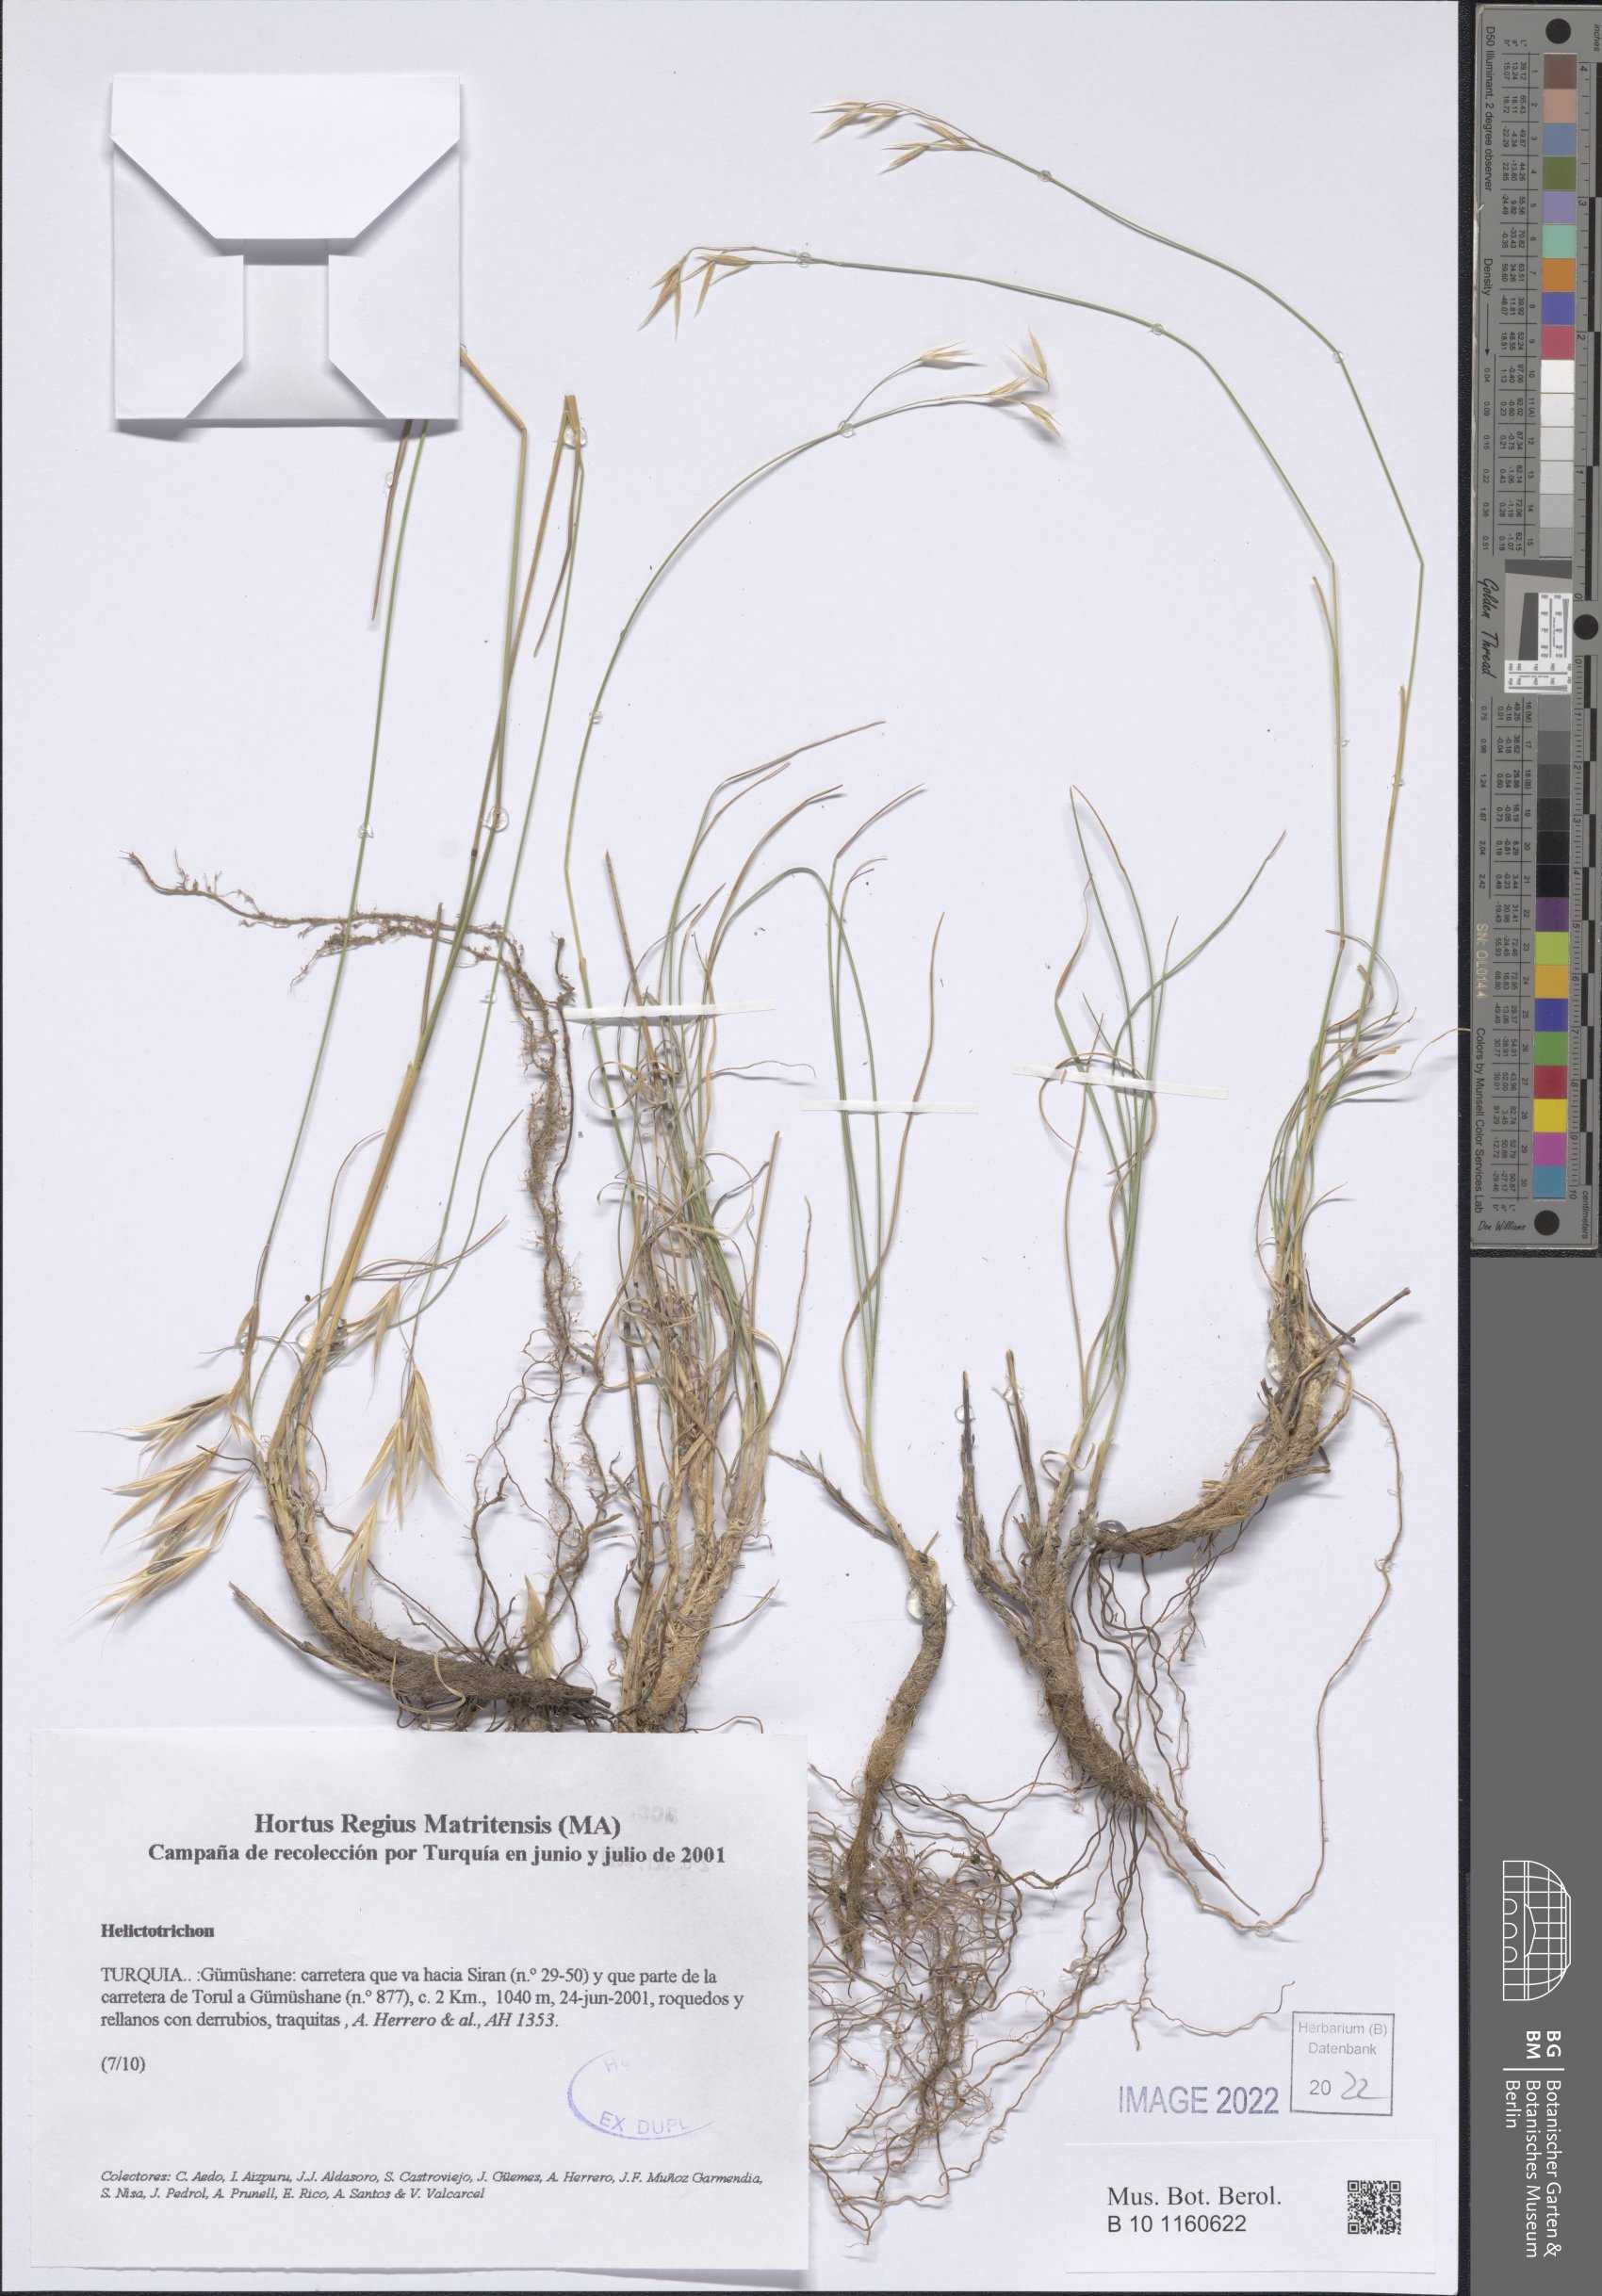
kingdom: Plantae
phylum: Tracheophyta
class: Liliopsida
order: Poales
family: Poaceae
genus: Helictotrichon
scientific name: Helictotrichon
